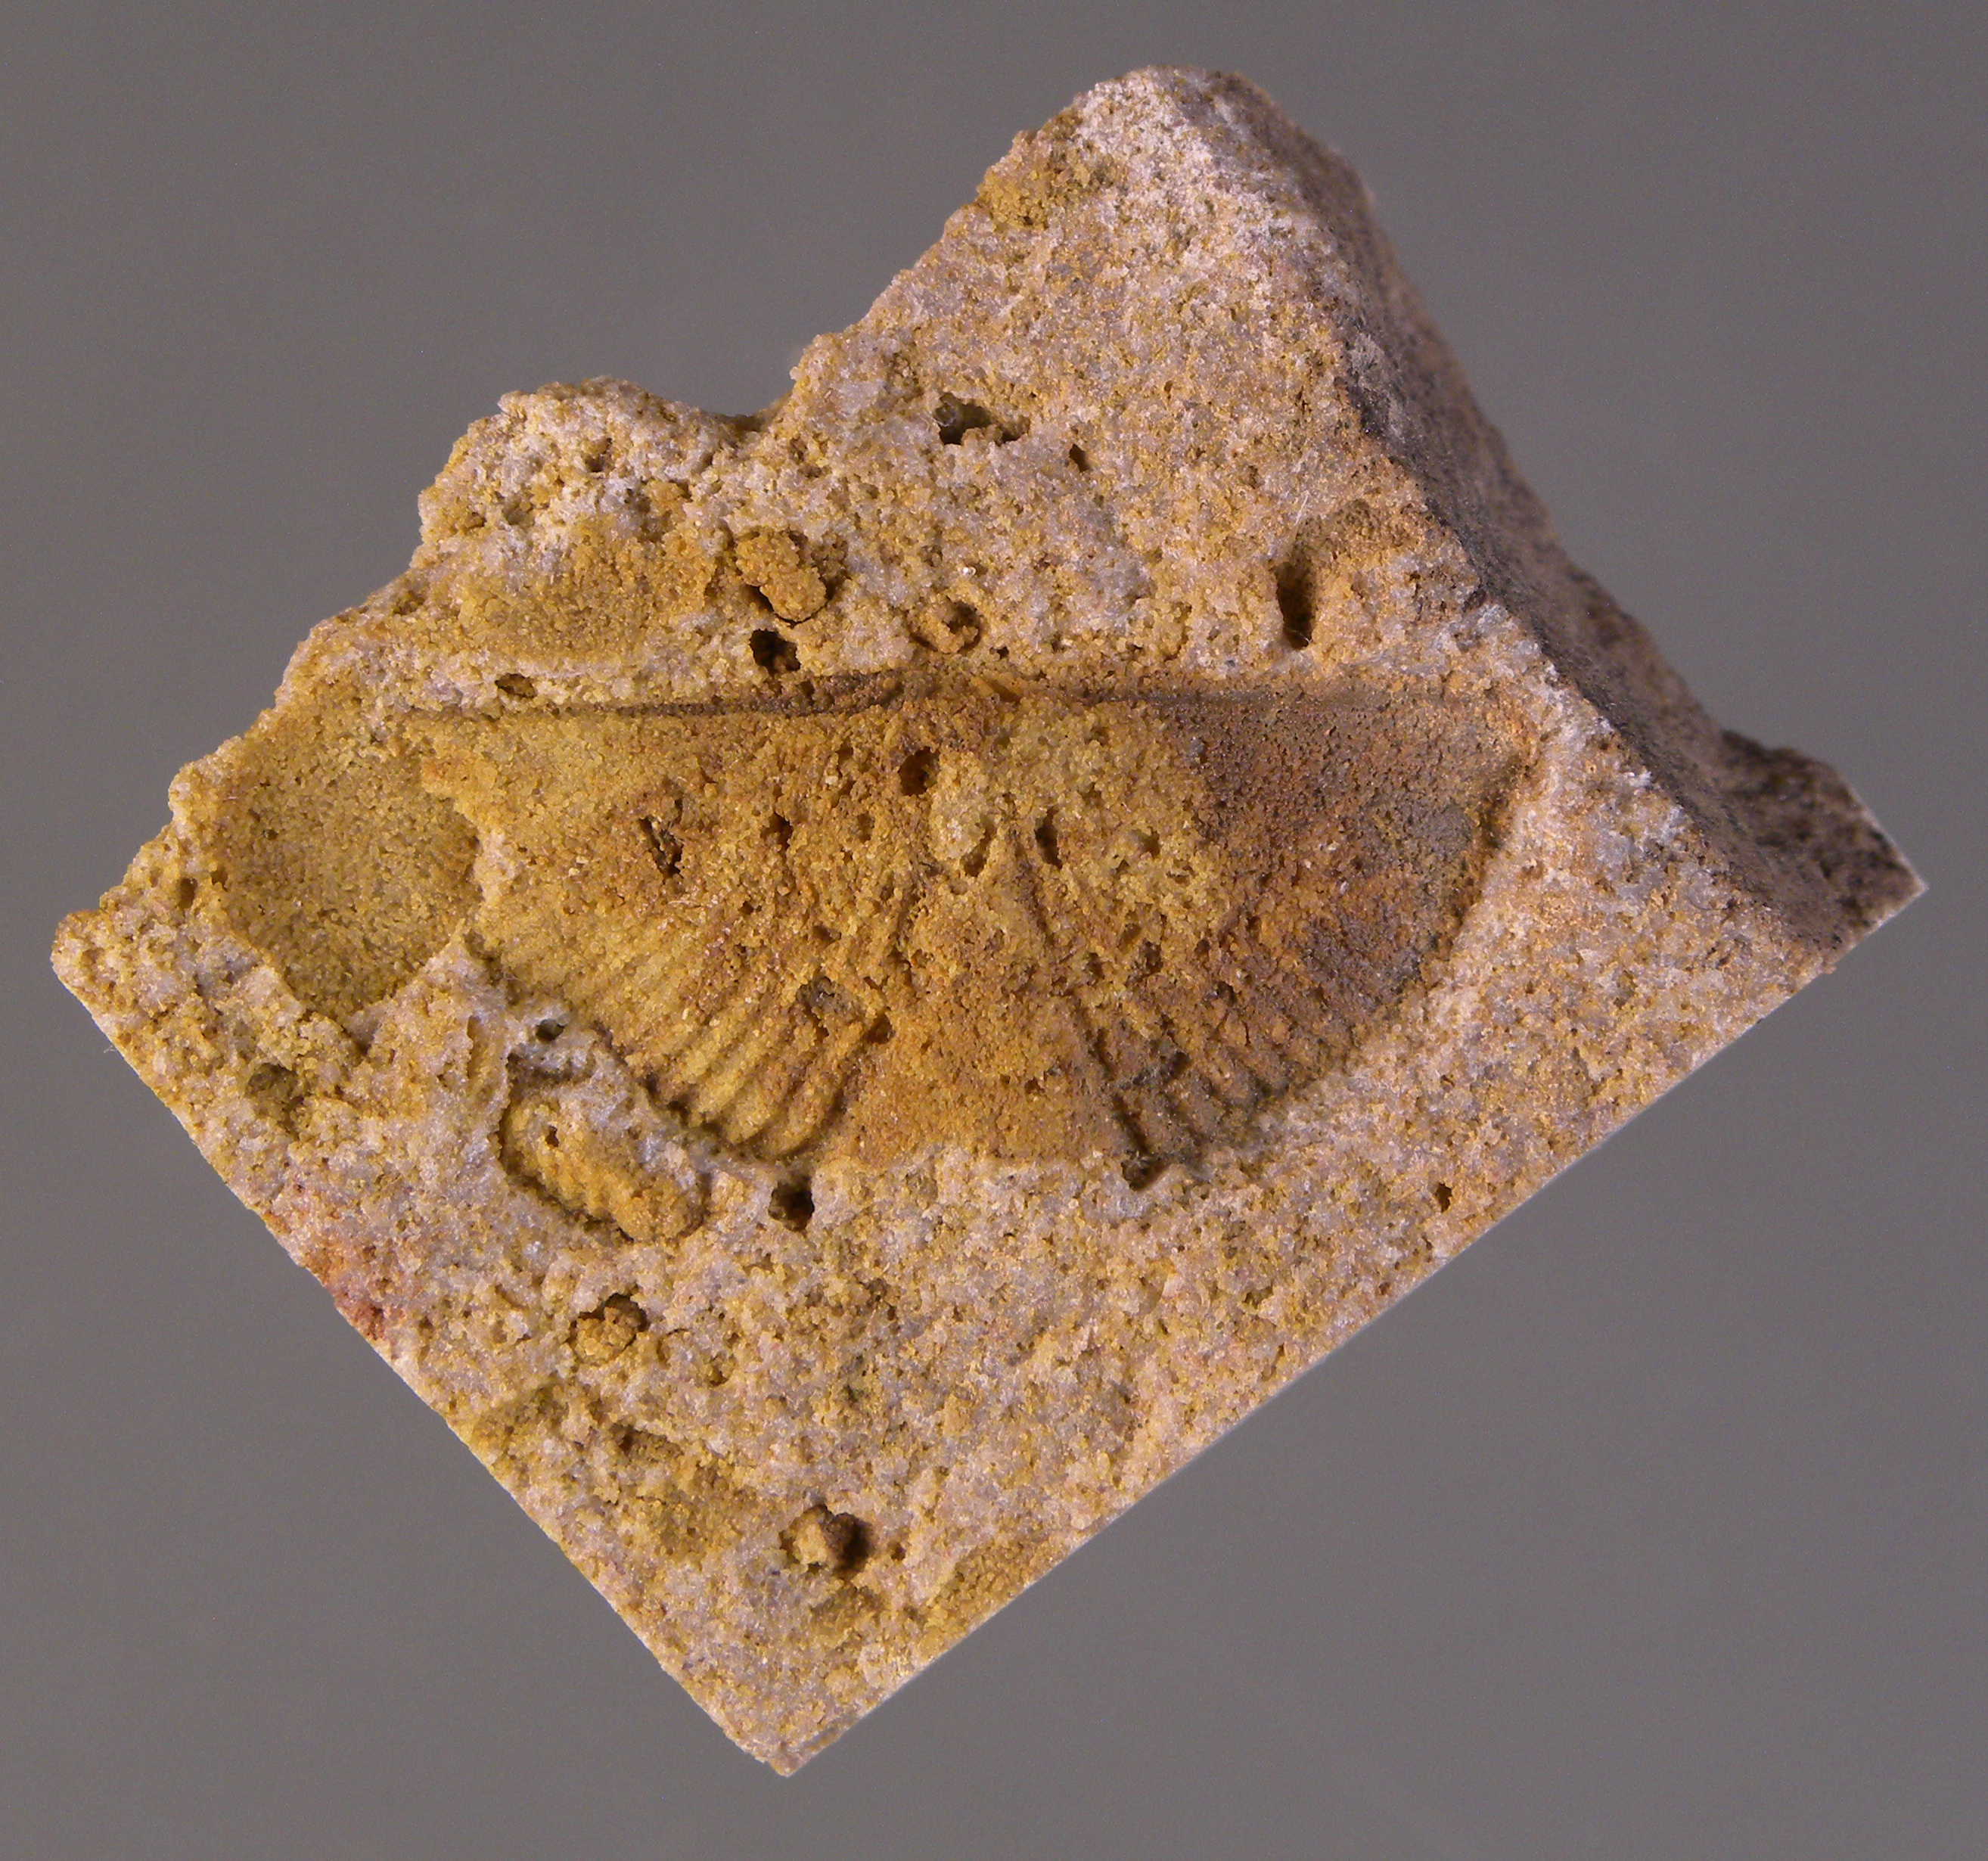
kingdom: Animalia
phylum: Brachiopoda
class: Rhynchonellata
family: Spinocyrtiidae
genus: Subcuspidella
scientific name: Subcuspidella
